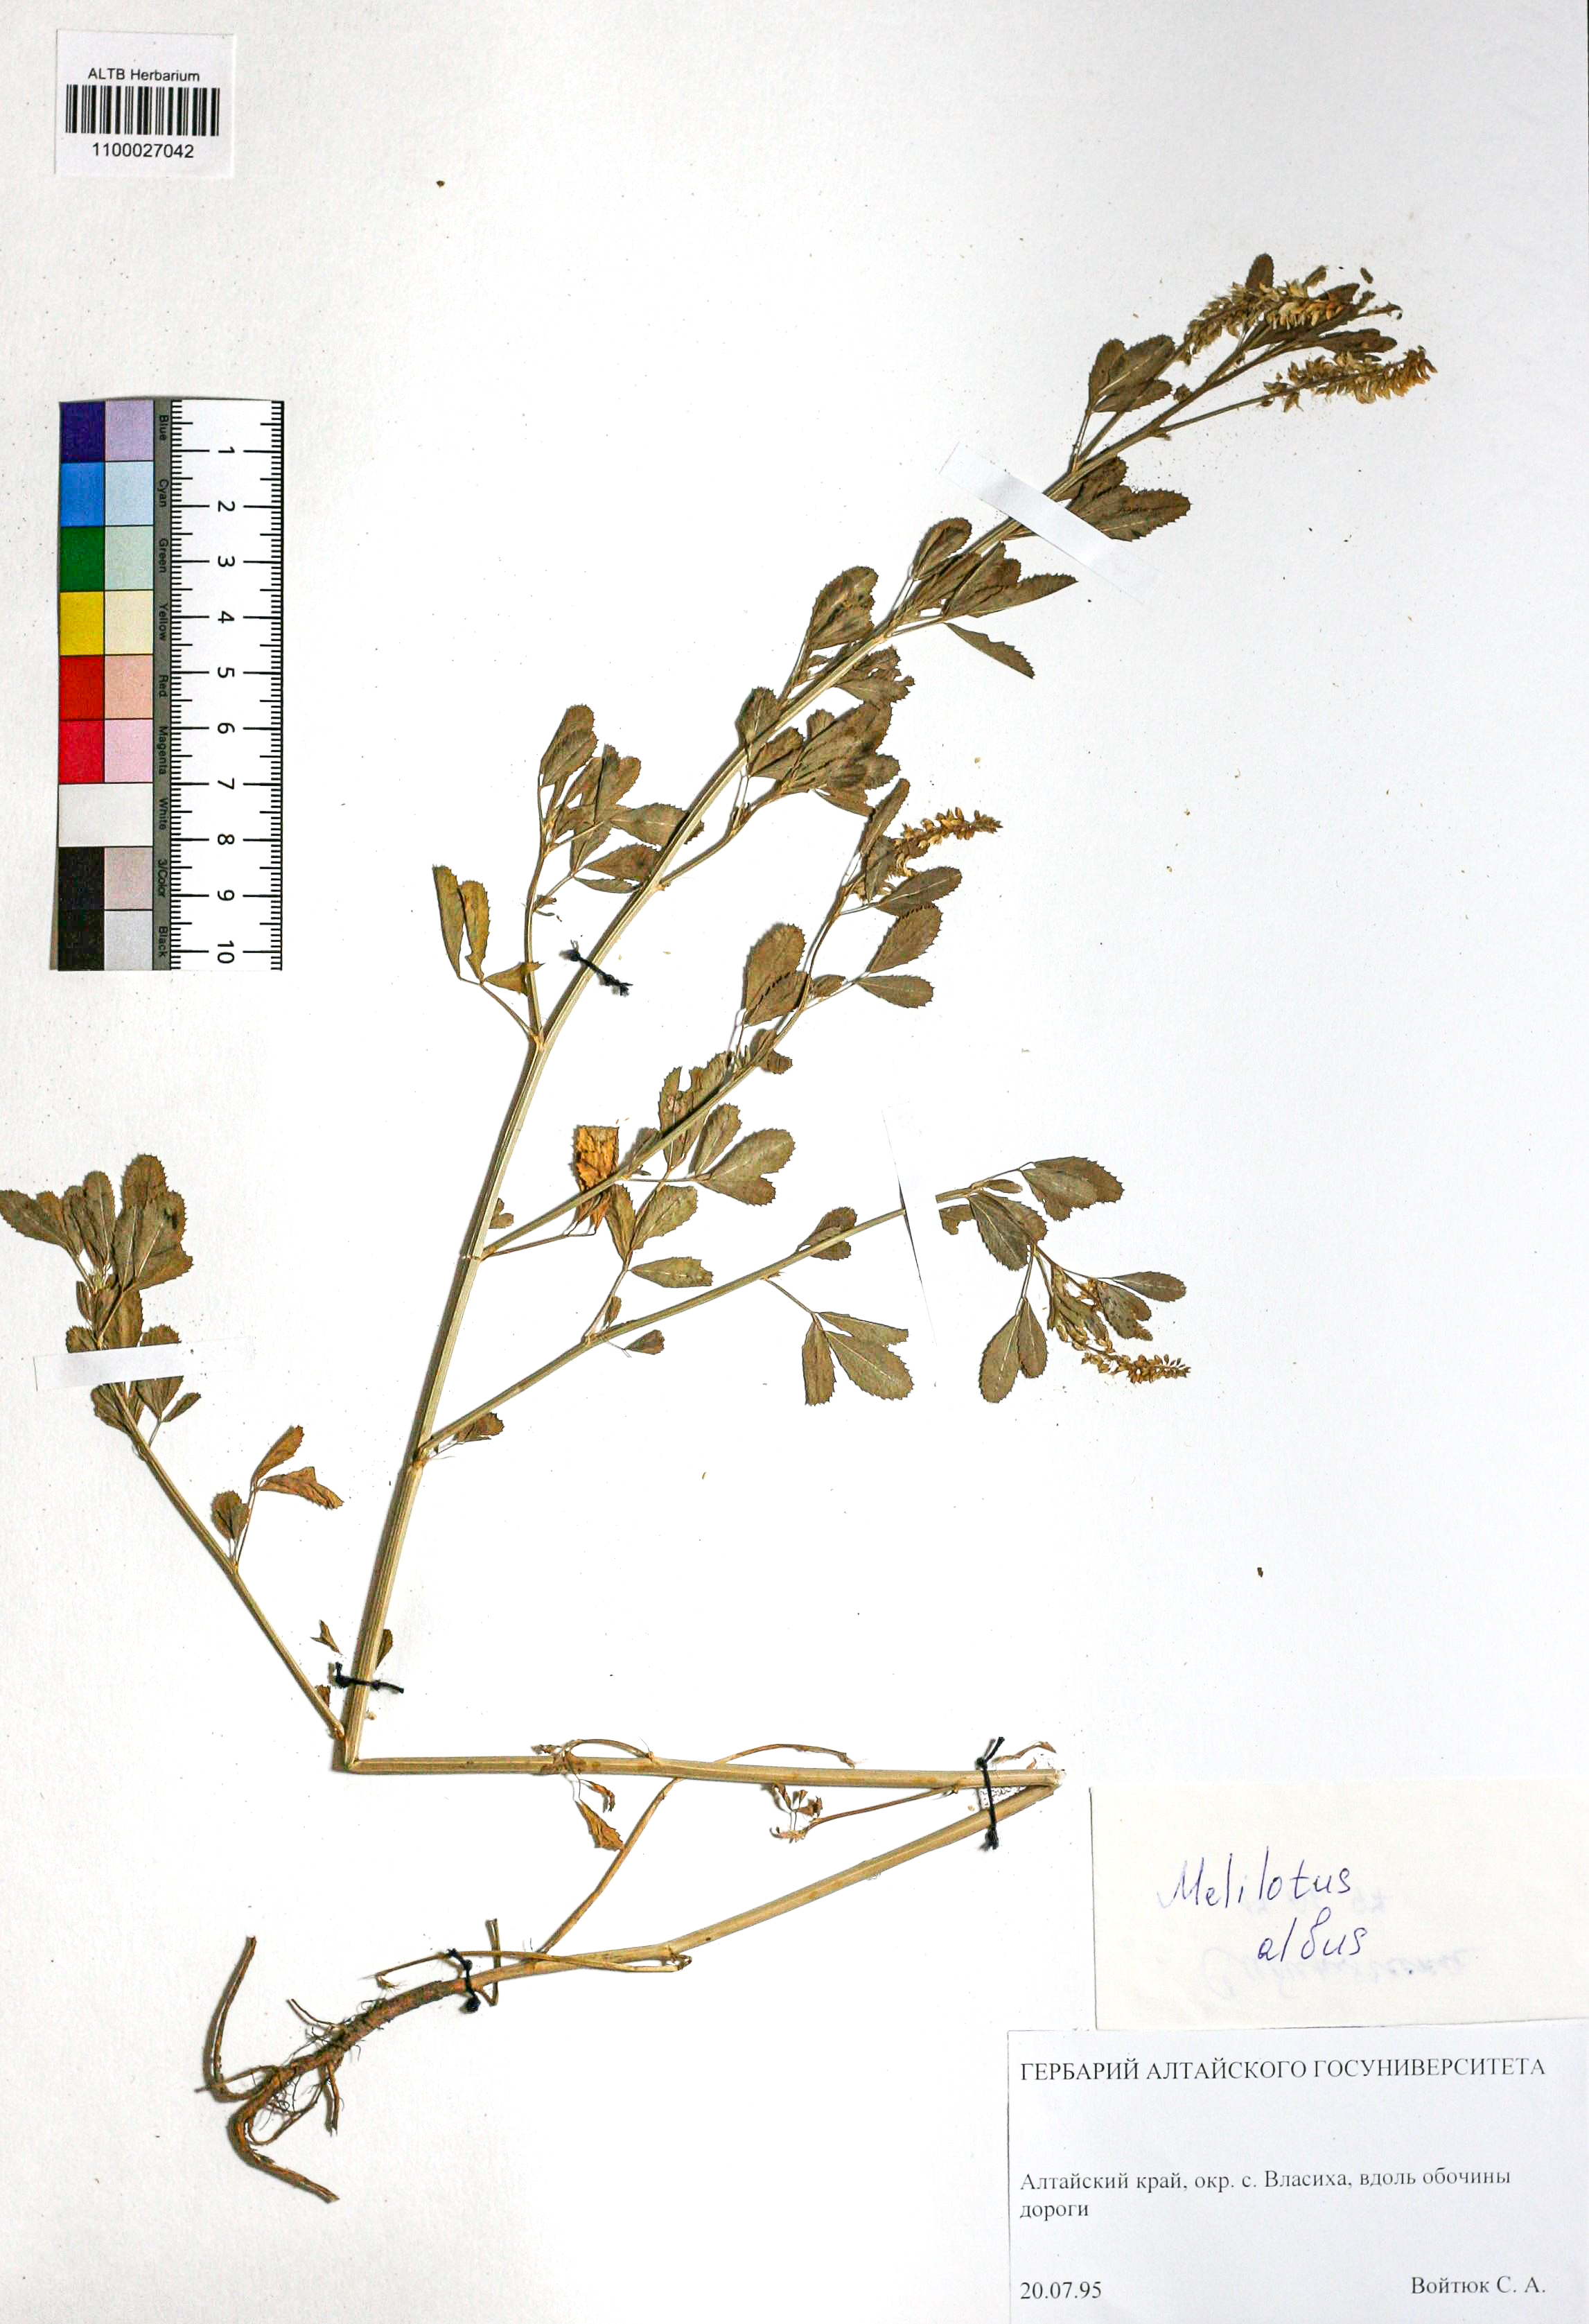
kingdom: Plantae
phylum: Tracheophyta
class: Magnoliopsida
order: Fabales
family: Fabaceae
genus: Melilotus
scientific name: Melilotus albus
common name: White melilot
